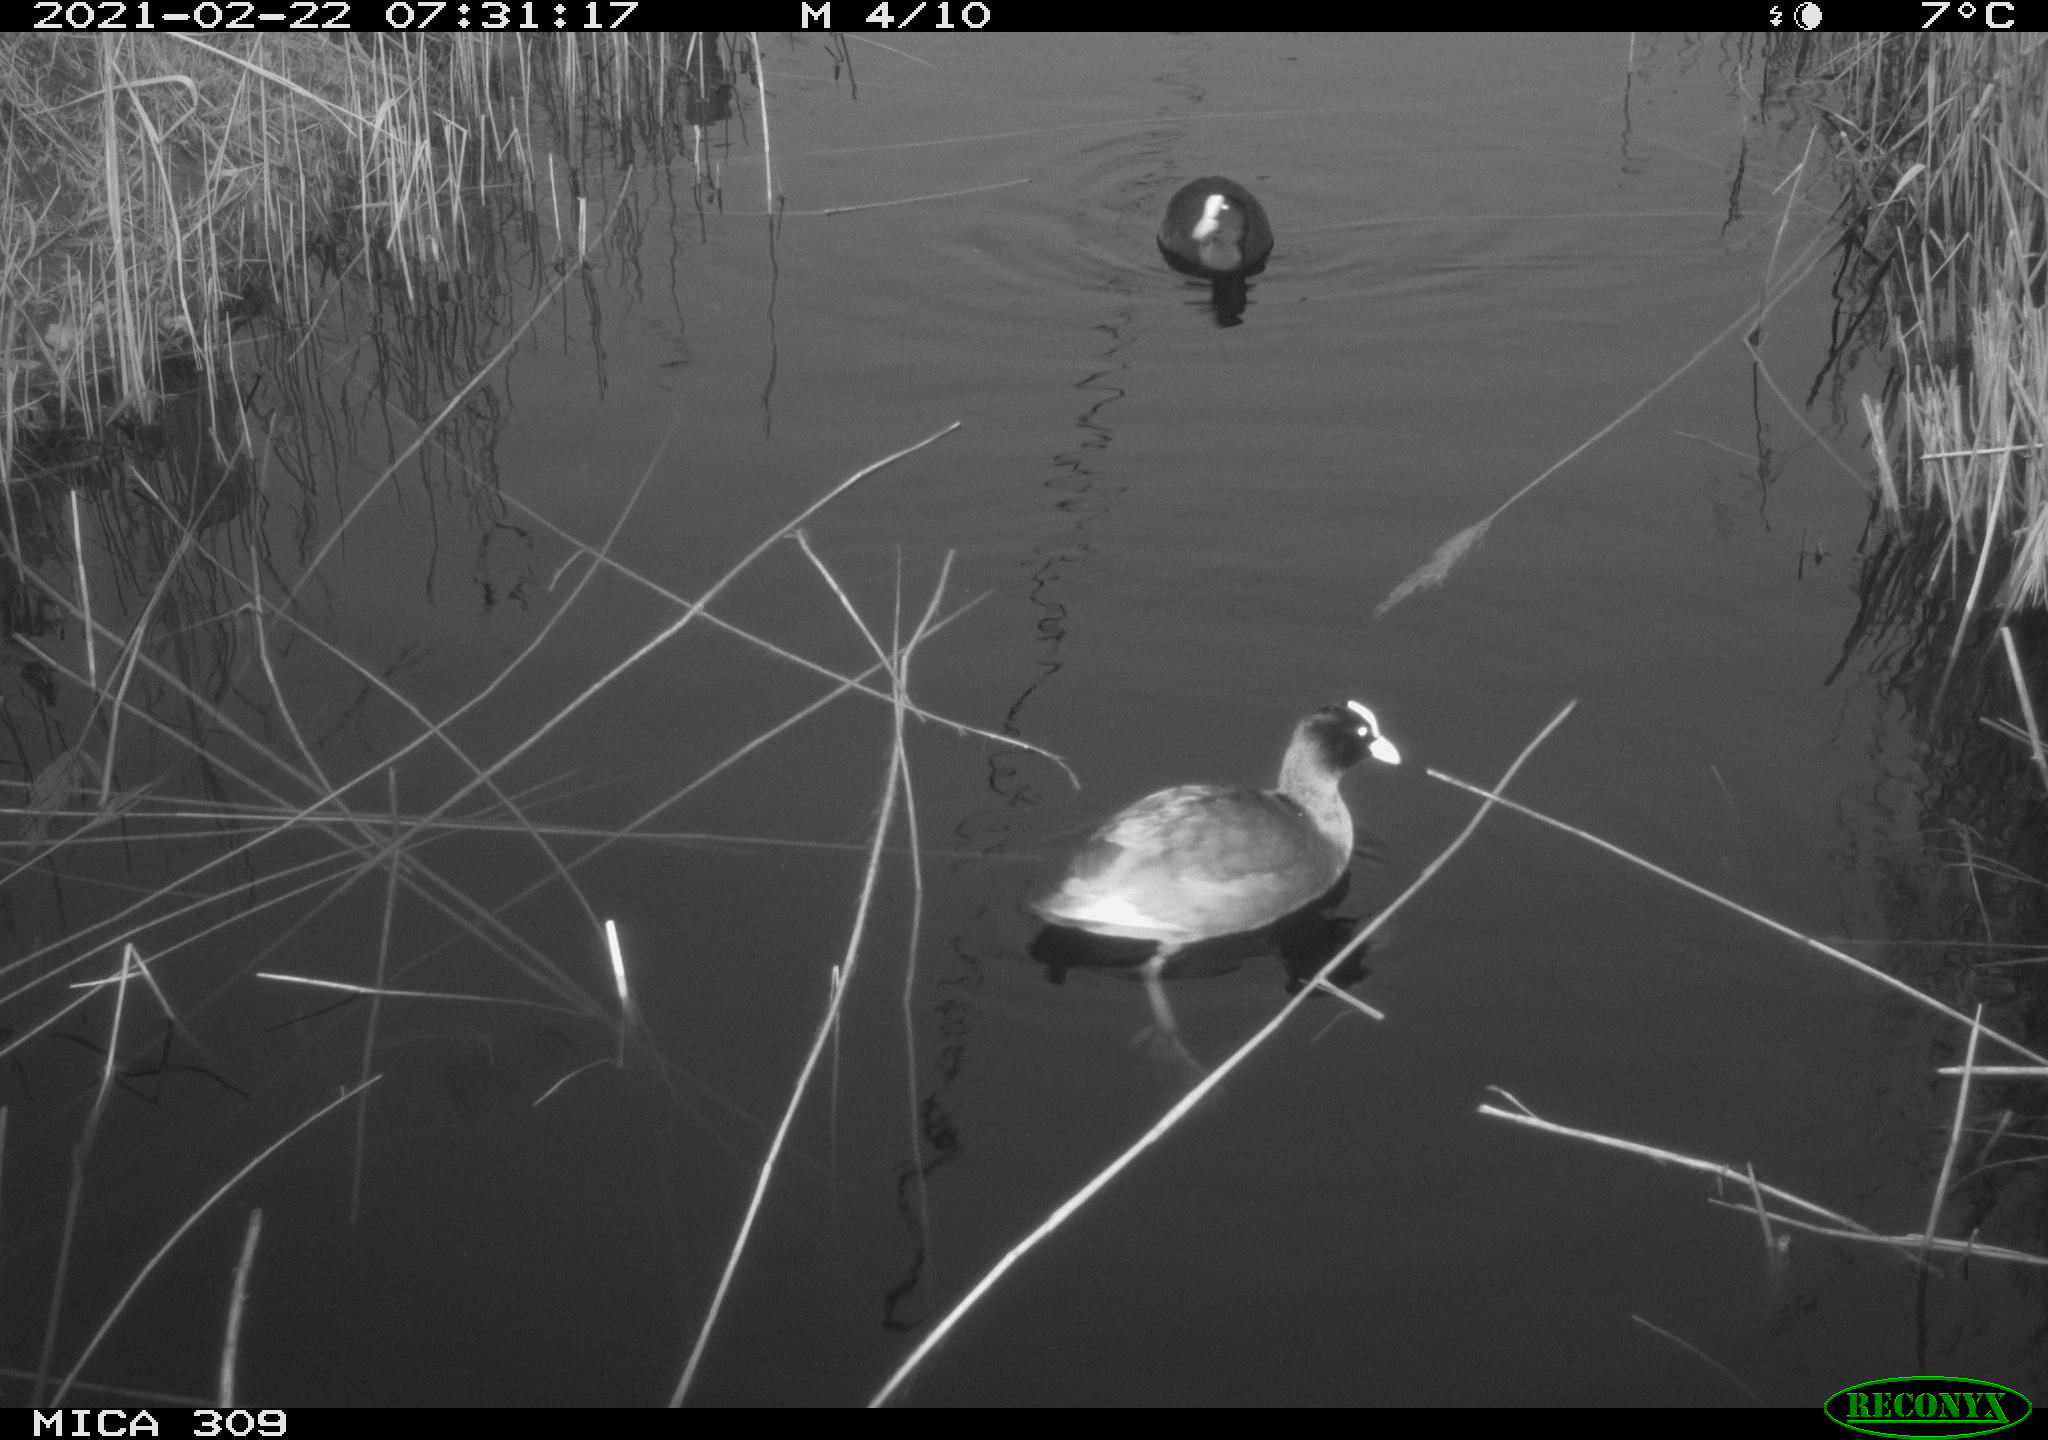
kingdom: Animalia
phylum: Chordata
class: Aves
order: Gruiformes
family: Rallidae
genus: Fulica
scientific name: Fulica atra
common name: Eurasian coot
